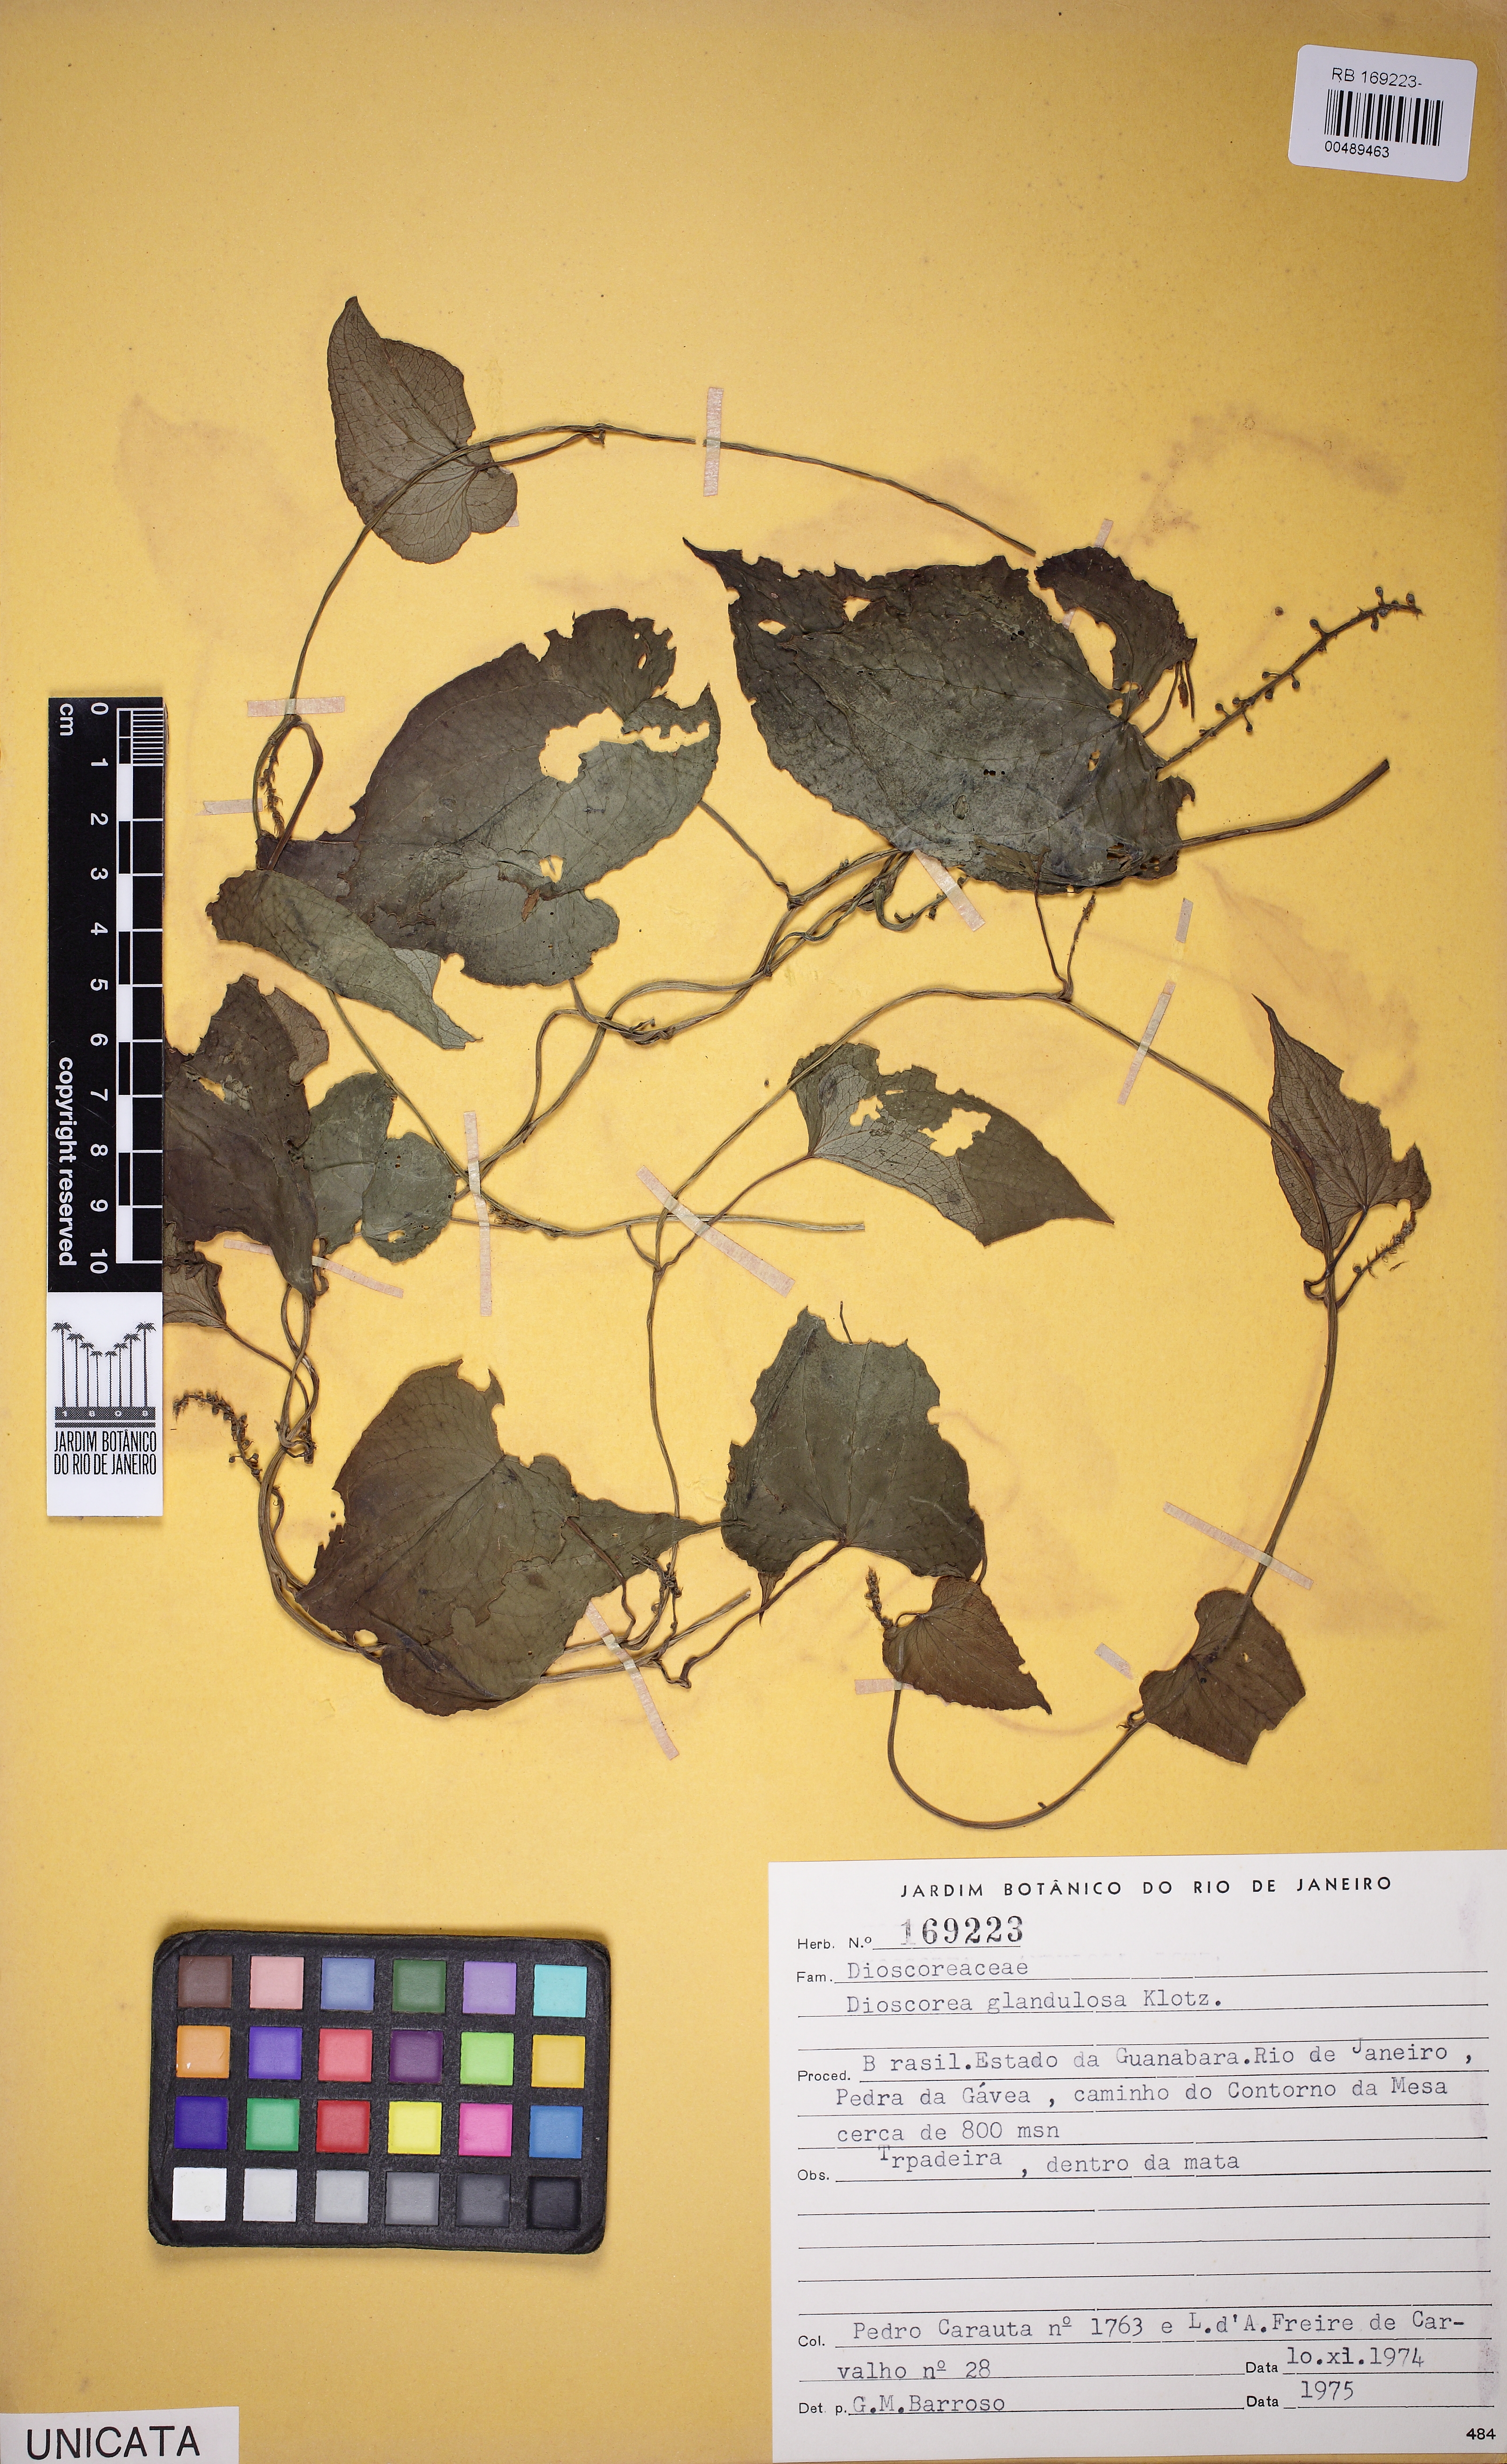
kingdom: Plantae
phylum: Tracheophyta
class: Liliopsida
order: Dioscoreales
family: Dioscoreaceae
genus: Dioscorea
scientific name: Dioscorea piperifolia
